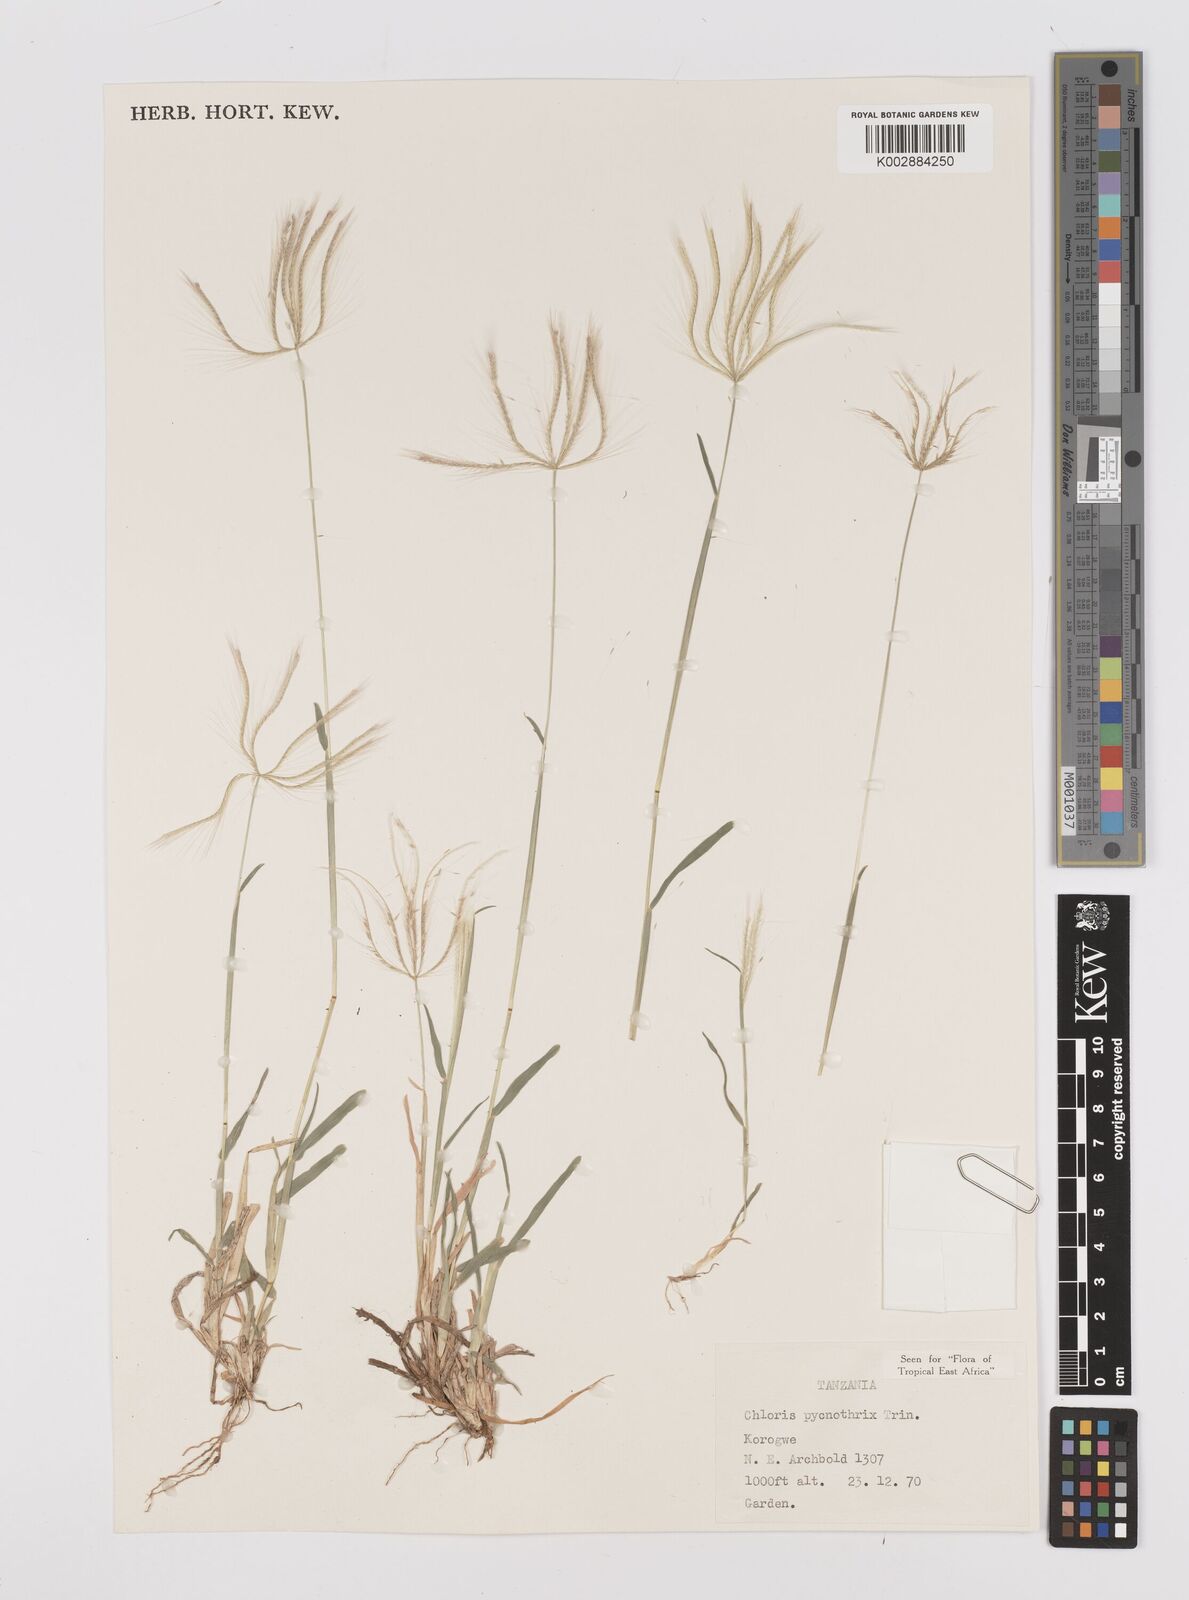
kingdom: Plantae
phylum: Tracheophyta
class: Liliopsida
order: Poales
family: Poaceae
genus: Chloris
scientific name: Chloris pycnothrix
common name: Spiderweb chloris
